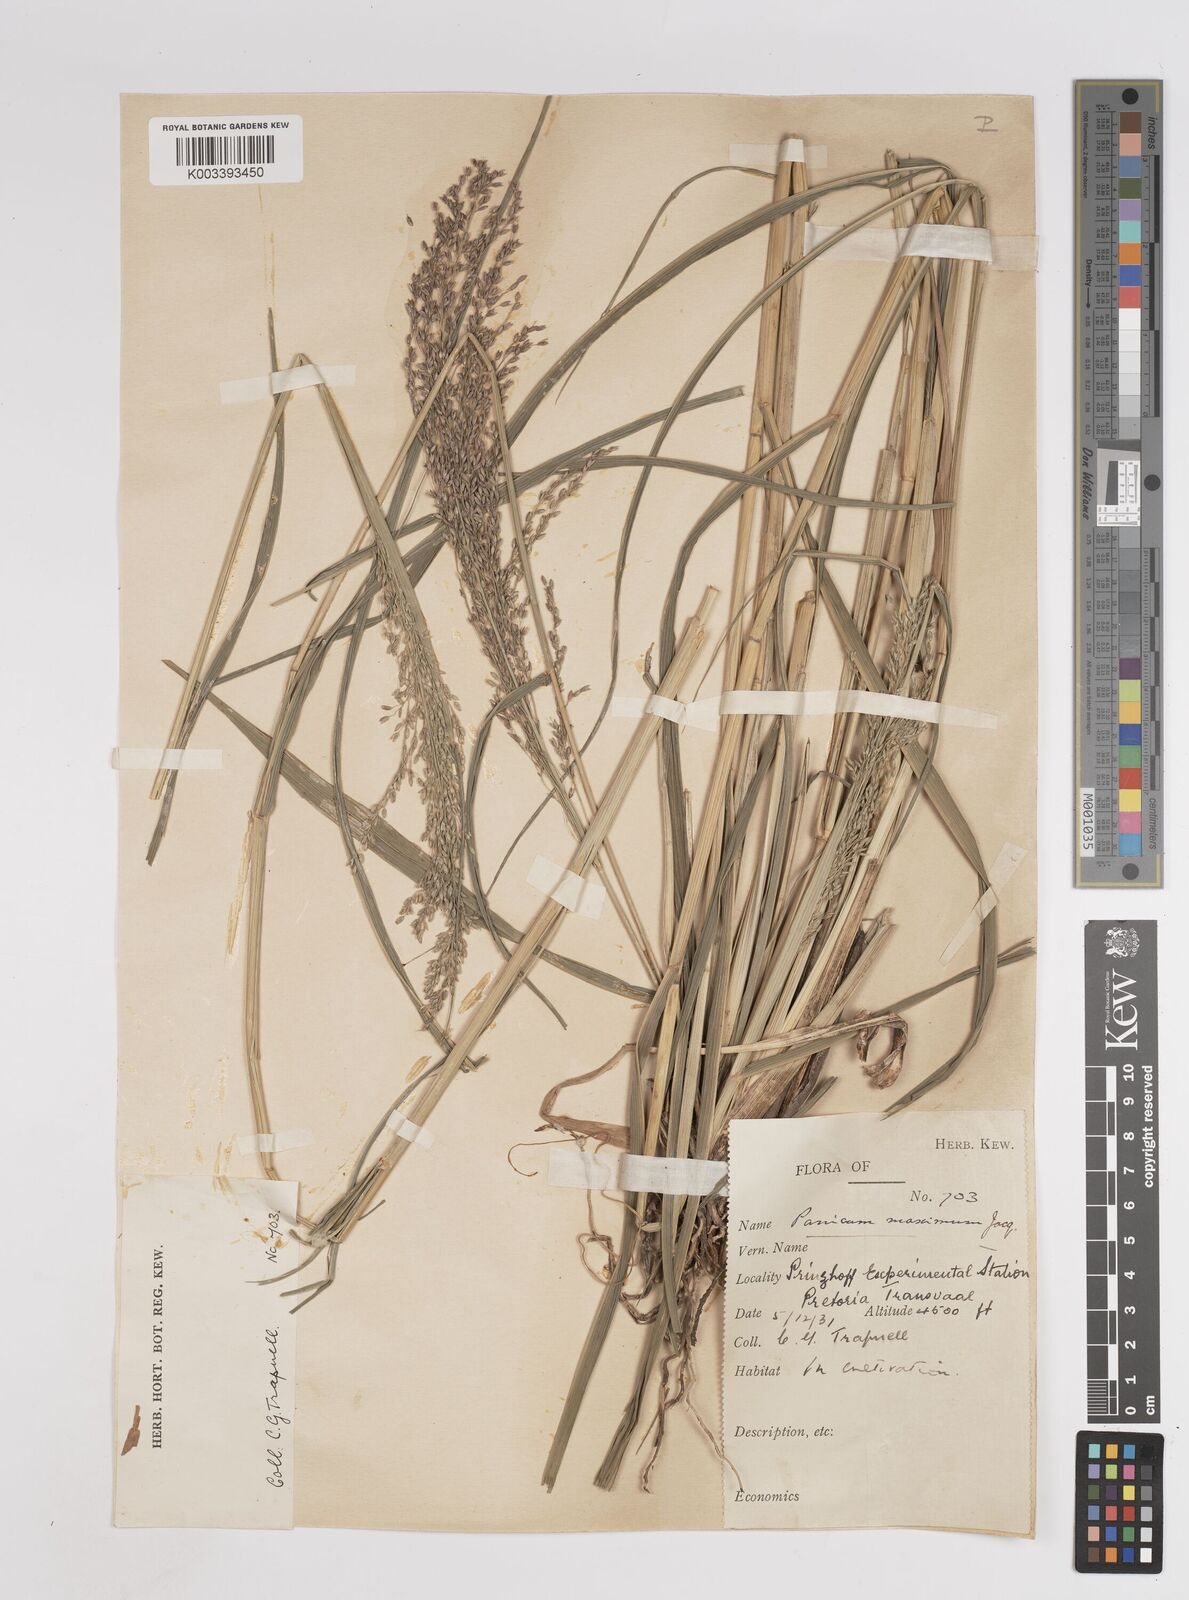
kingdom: Plantae
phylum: Tracheophyta
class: Liliopsida
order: Poales
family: Poaceae
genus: Megathyrsus
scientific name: Megathyrsus maximus
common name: Guineagrass
